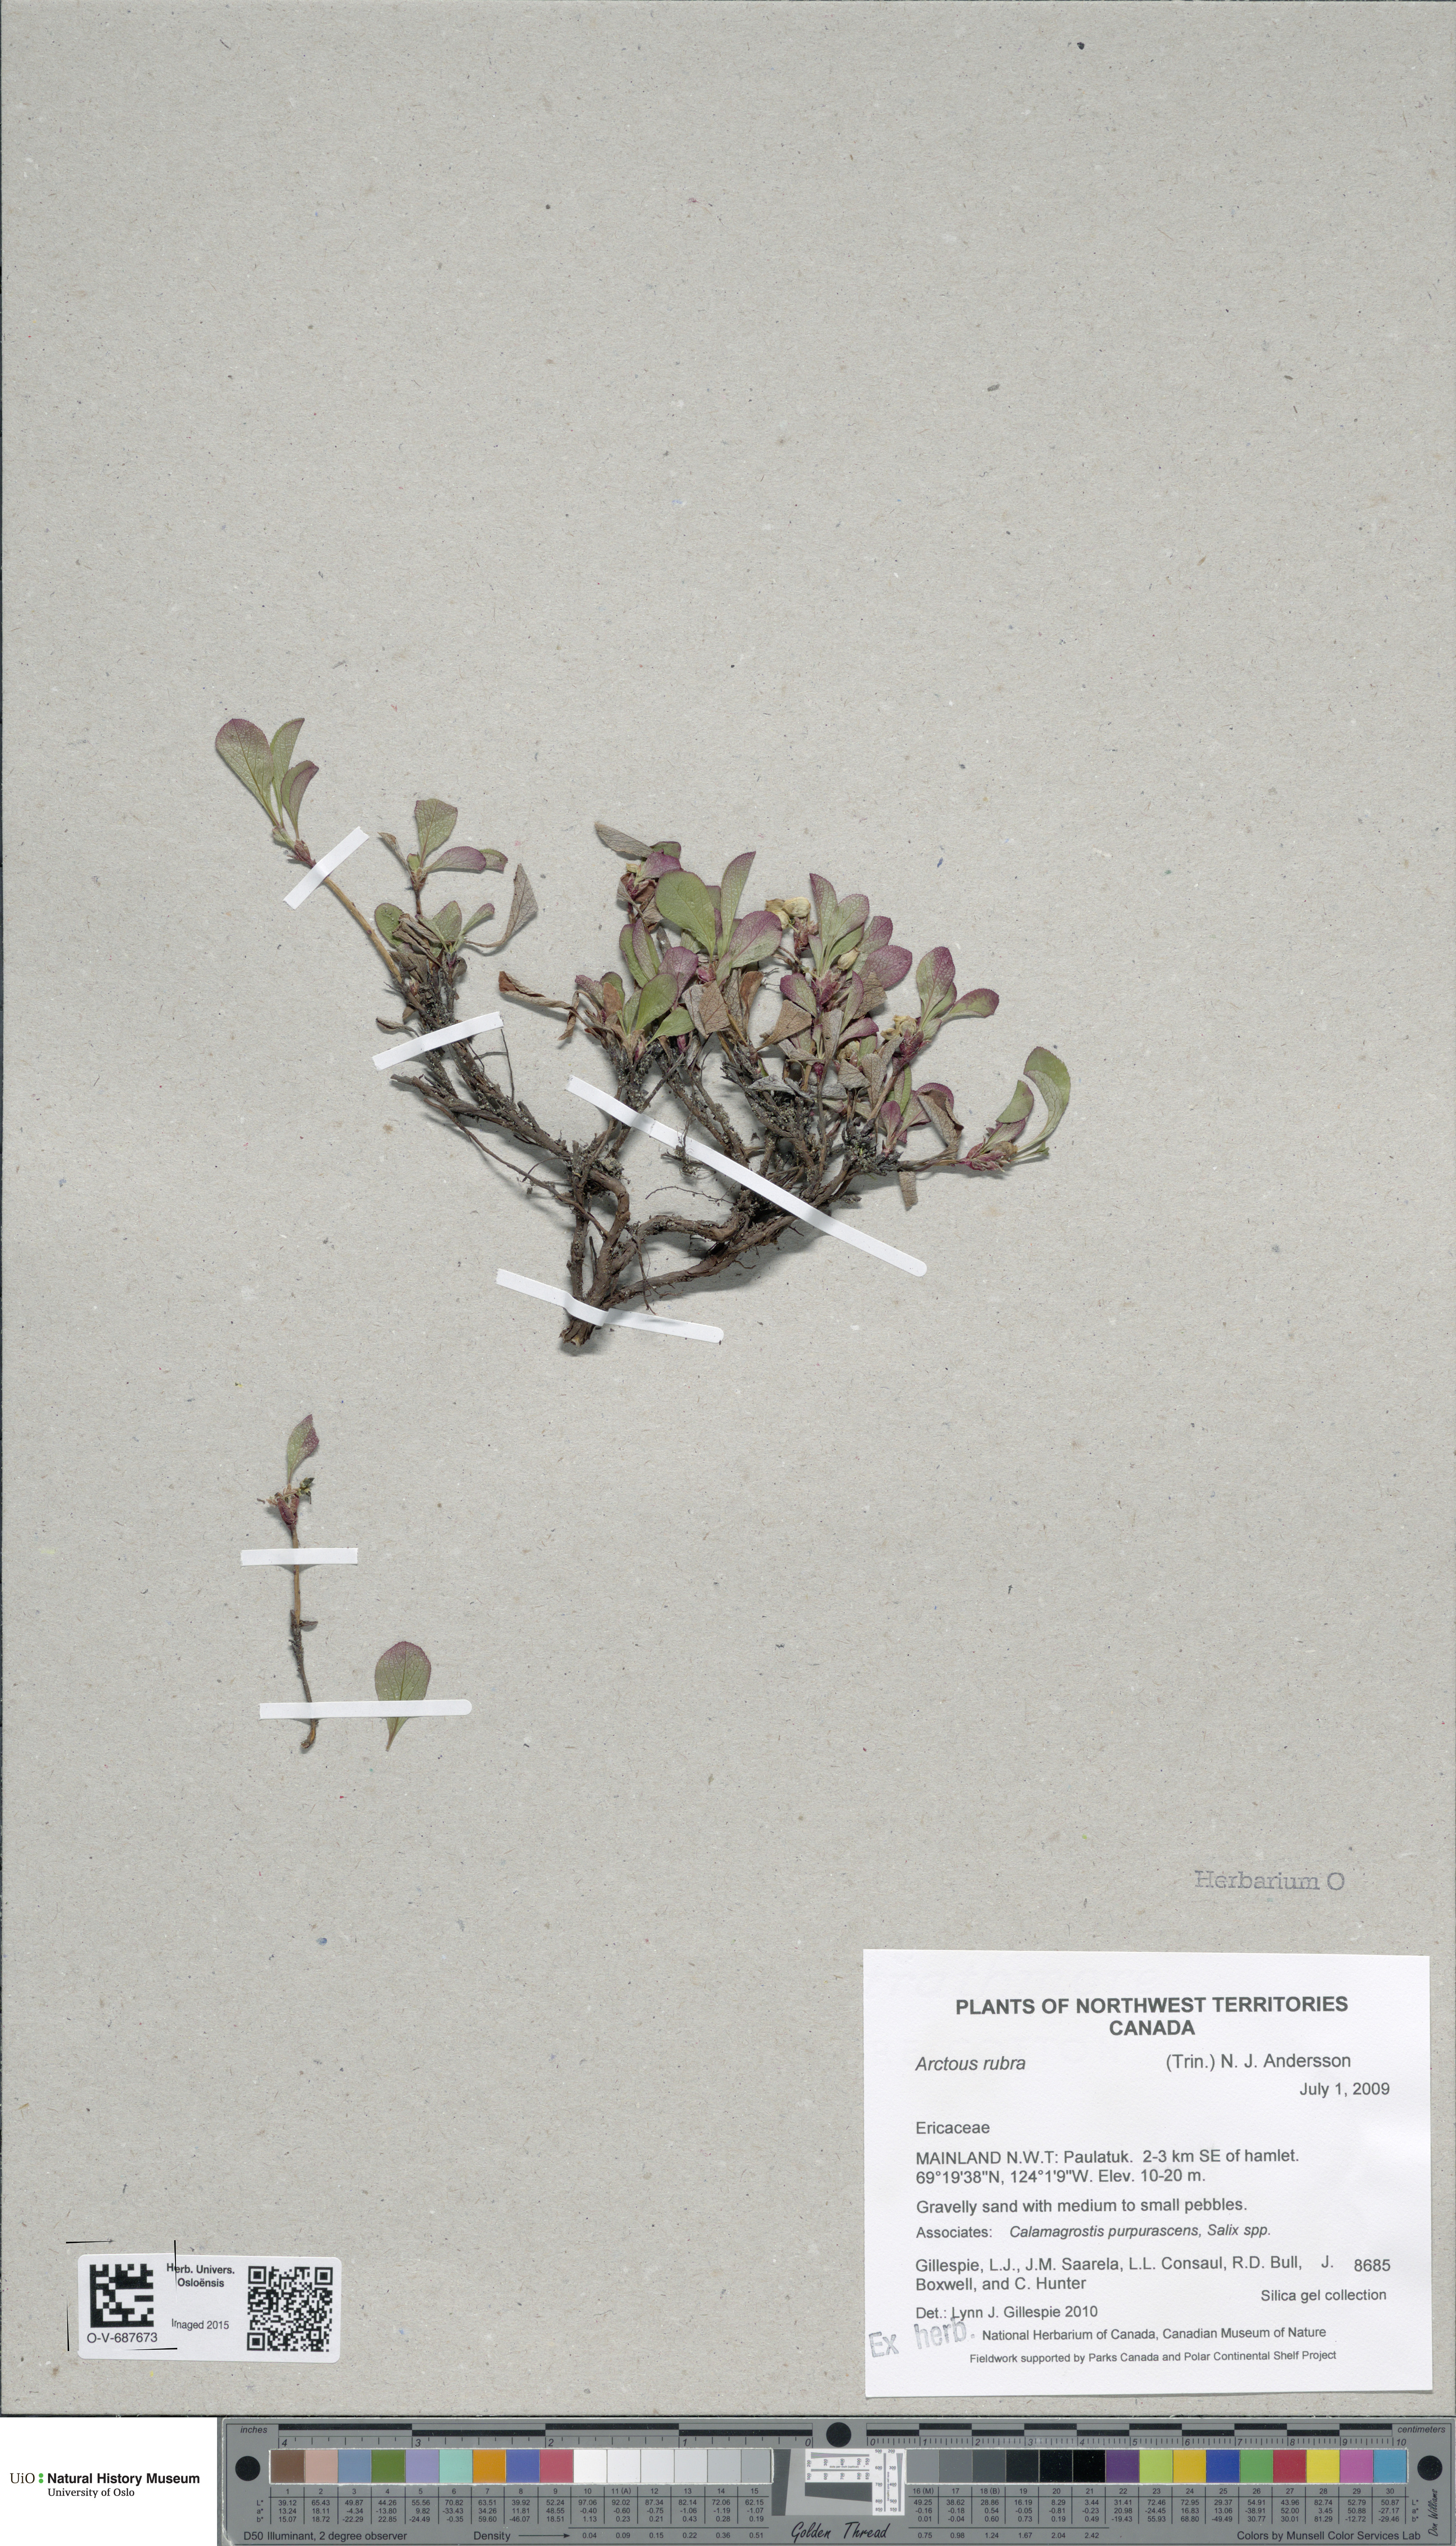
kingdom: Plantae
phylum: Tracheophyta
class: Magnoliopsida
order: Ericales
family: Ericaceae
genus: Arctostaphylos
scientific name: Arctostaphylos rubra
